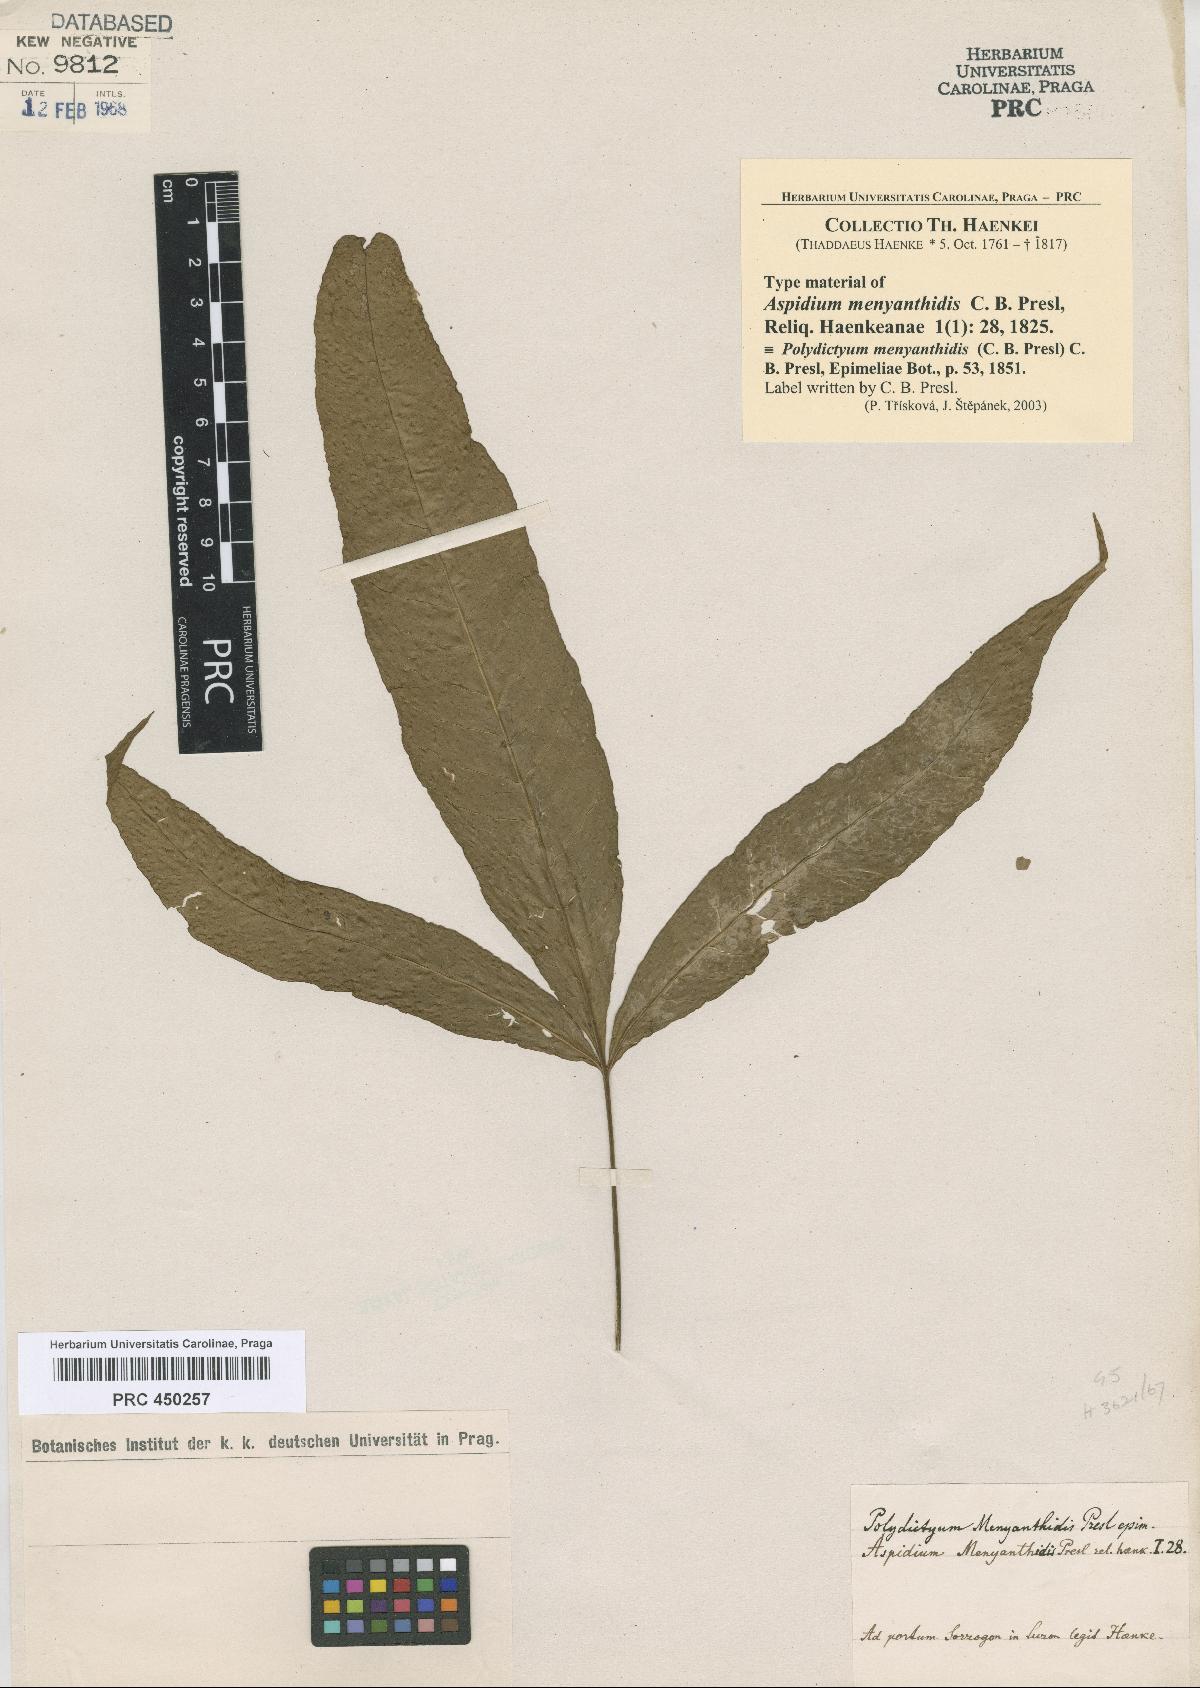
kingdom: Plantae
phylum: Tracheophyta
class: Polypodiopsida
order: Polypodiales
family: Tectariaceae
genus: Polydictyum
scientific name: Polydictyum menyanthidis
